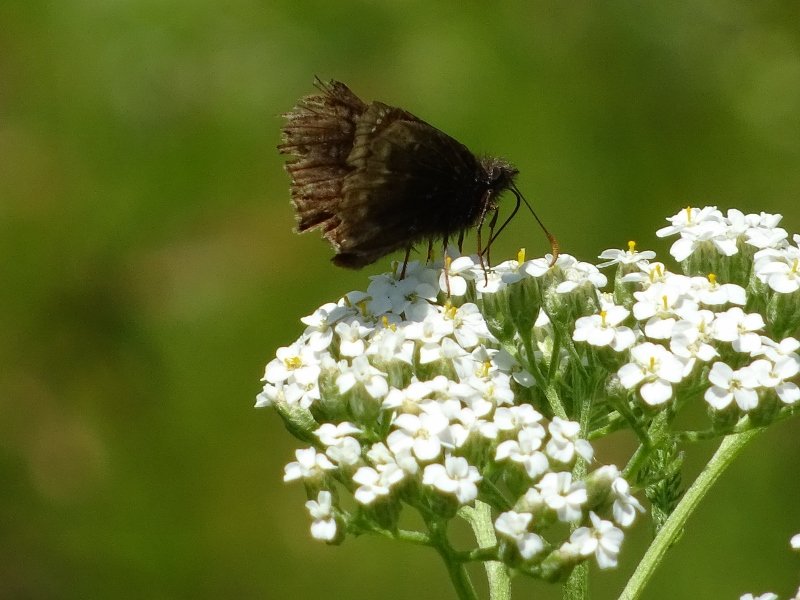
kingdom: Animalia
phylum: Arthropoda
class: Insecta
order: Lepidoptera
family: Hesperiidae
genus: Gesta
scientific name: Gesta
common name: Wild Indigo Duskywing
